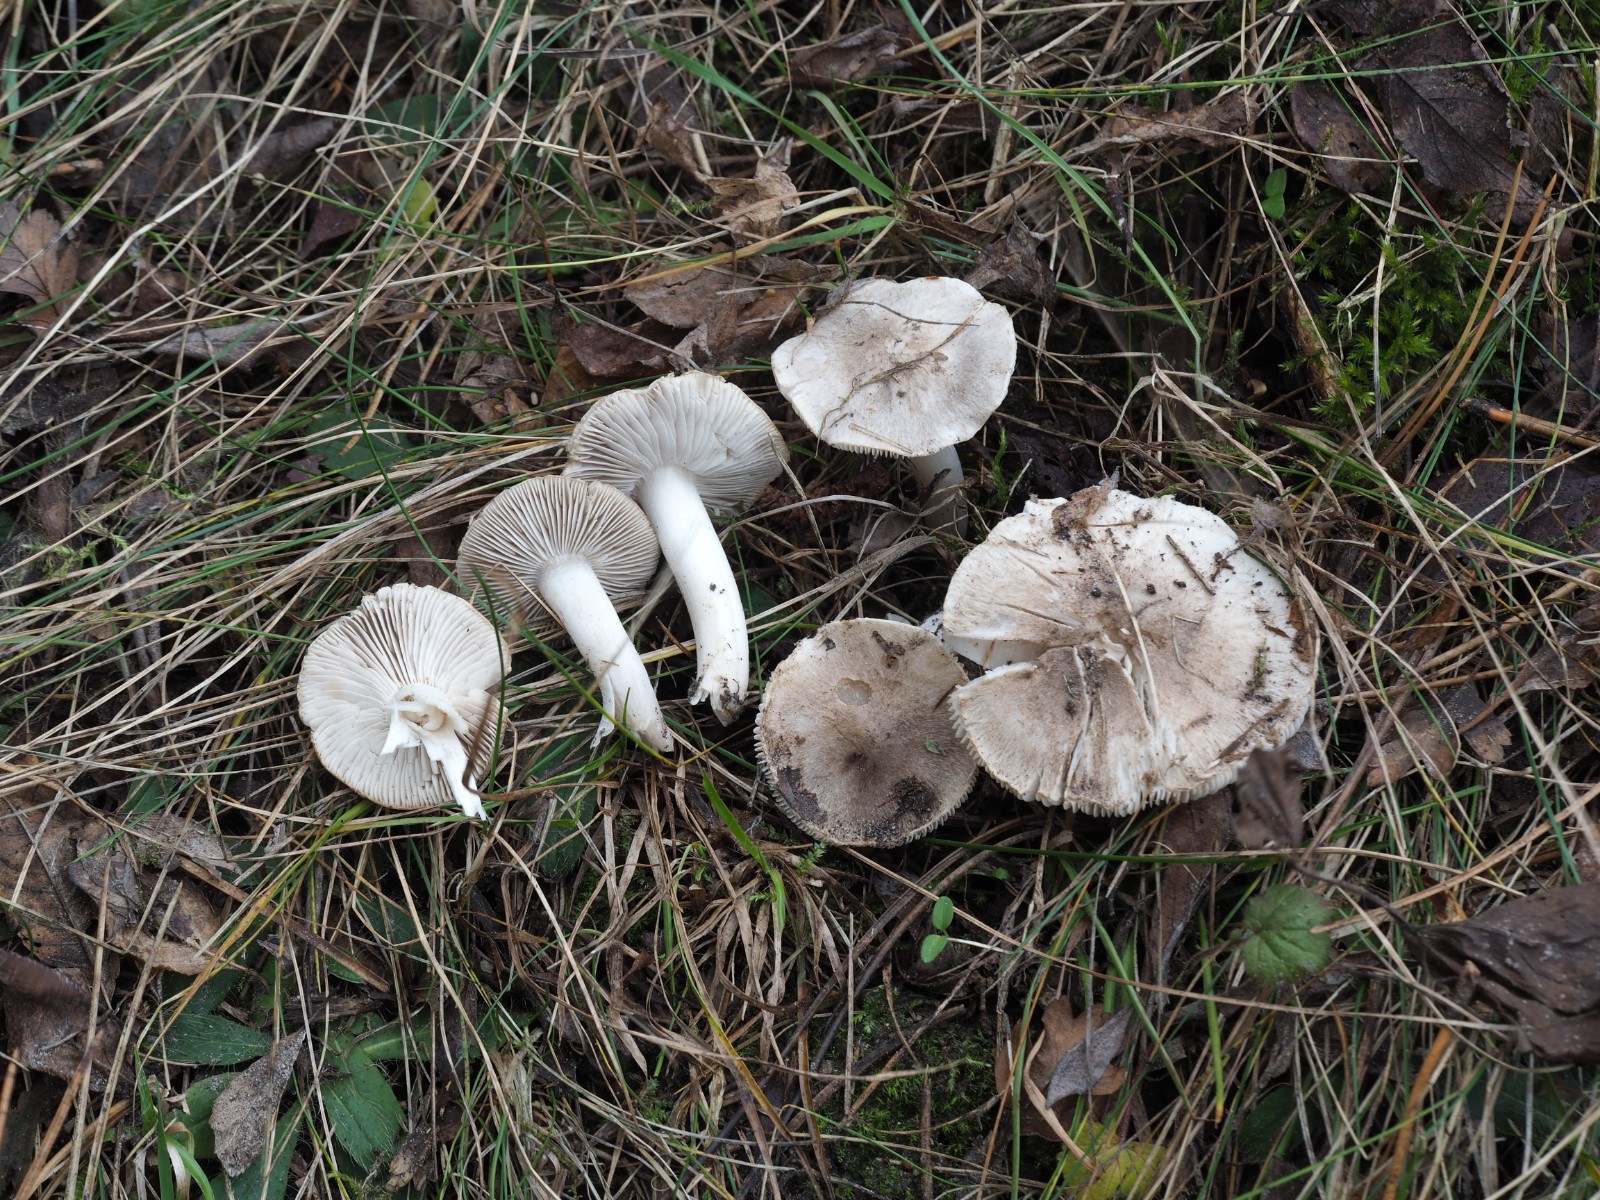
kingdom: Fungi
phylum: Basidiomycota
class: Agaricomycetes
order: Agaricales
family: Tricholomataceae
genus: Tricholoma
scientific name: Tricholoma terreum
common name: jordfarvet ridderhat
